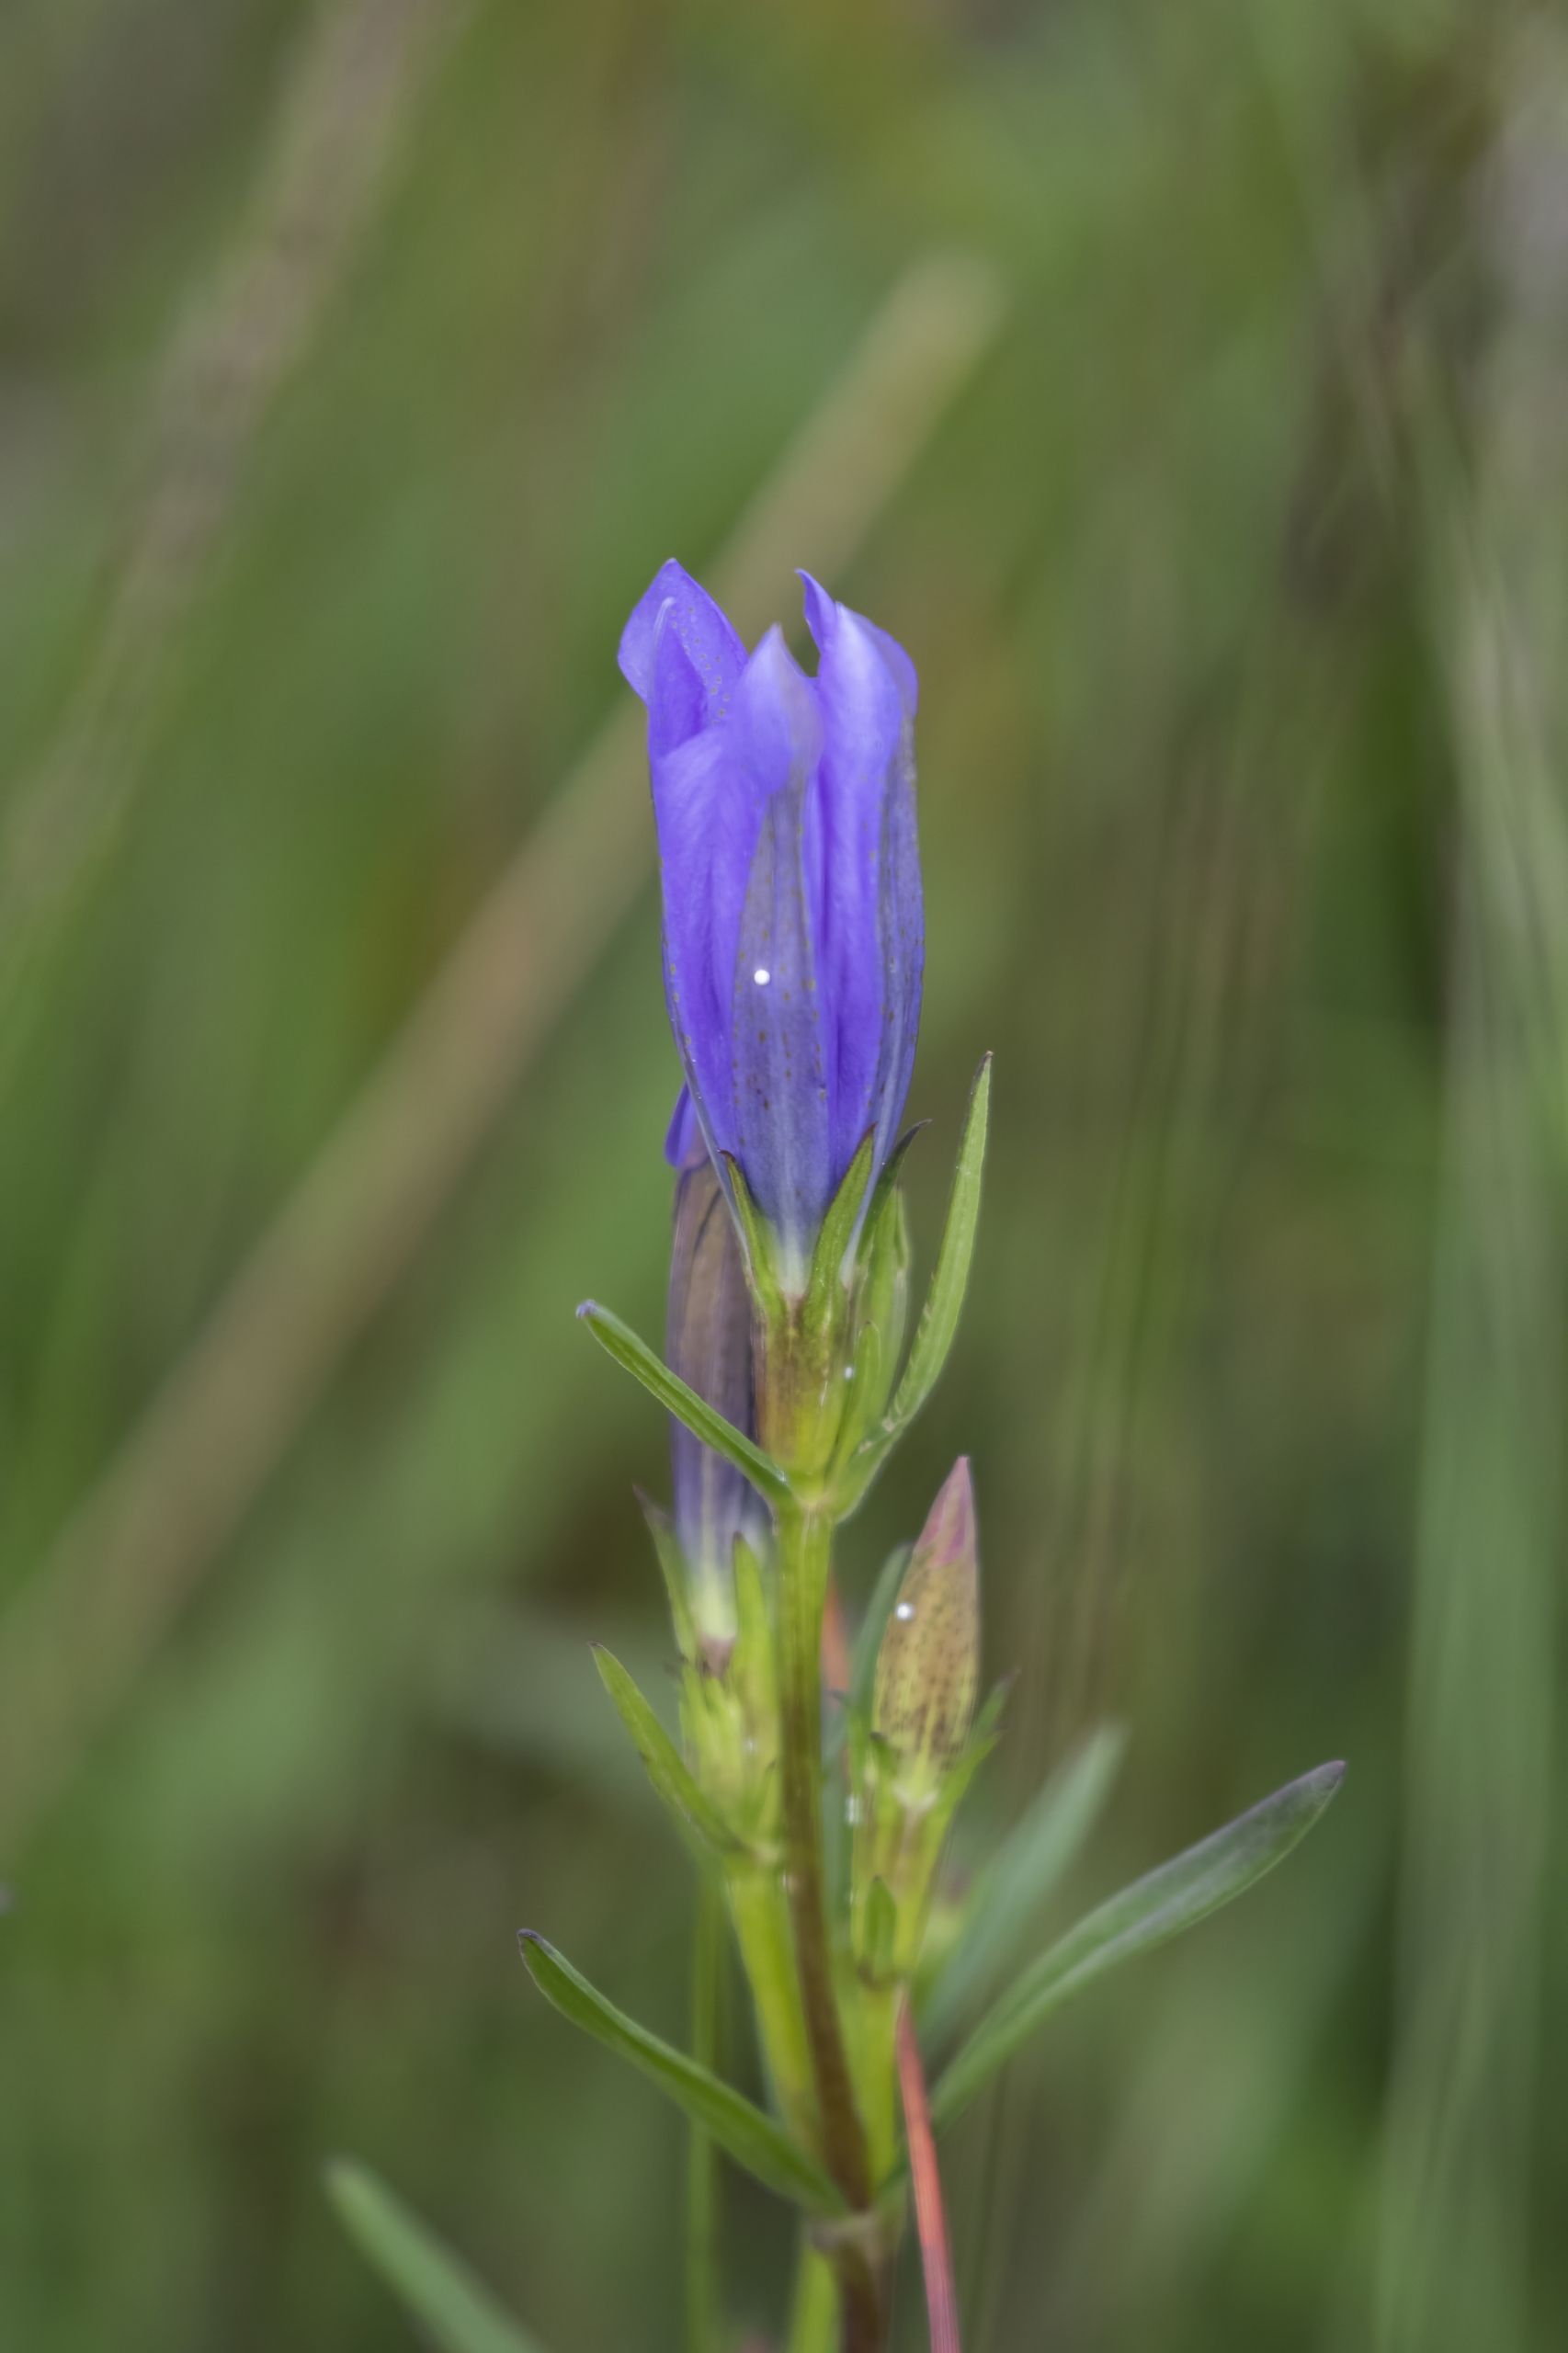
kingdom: Plantae
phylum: Tracheophyta
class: Magnoliopsida
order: Gentianales
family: Gentianaceae
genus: Gentiana
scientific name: Gentiana pneumonanthe
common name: Klokke-ensian
